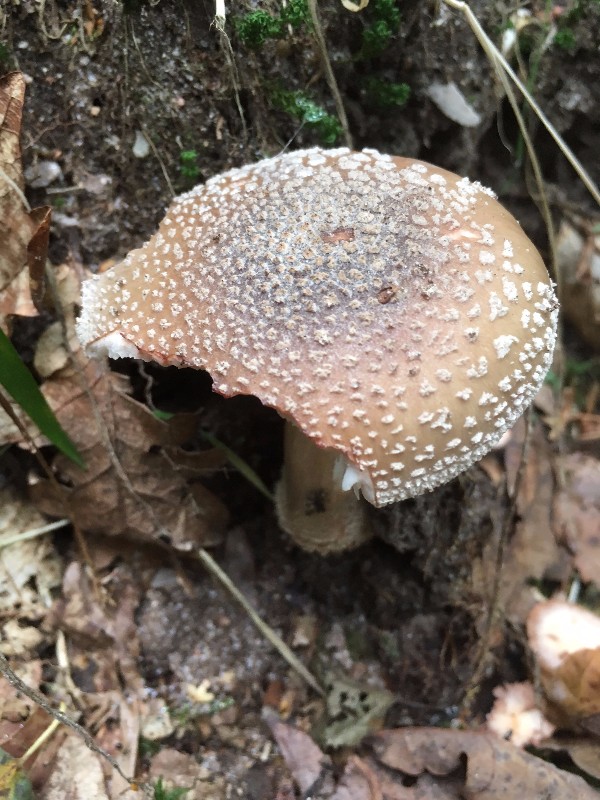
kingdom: Fungi
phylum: Basidiomycota
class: Agaricomycetes
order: Agaricales
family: Amanitaceae
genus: Amanita
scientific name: Amanita rubescens
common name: rødmende fluesvamp
